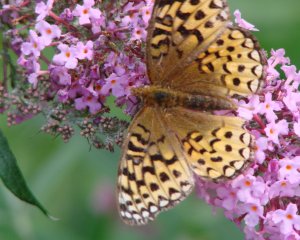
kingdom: Animalia
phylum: Arthropoda
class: Insecta
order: Lepidoptera
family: Nymphalidae
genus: Speyeria
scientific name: Speyeria cybele
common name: Great Spangled Fritillary
